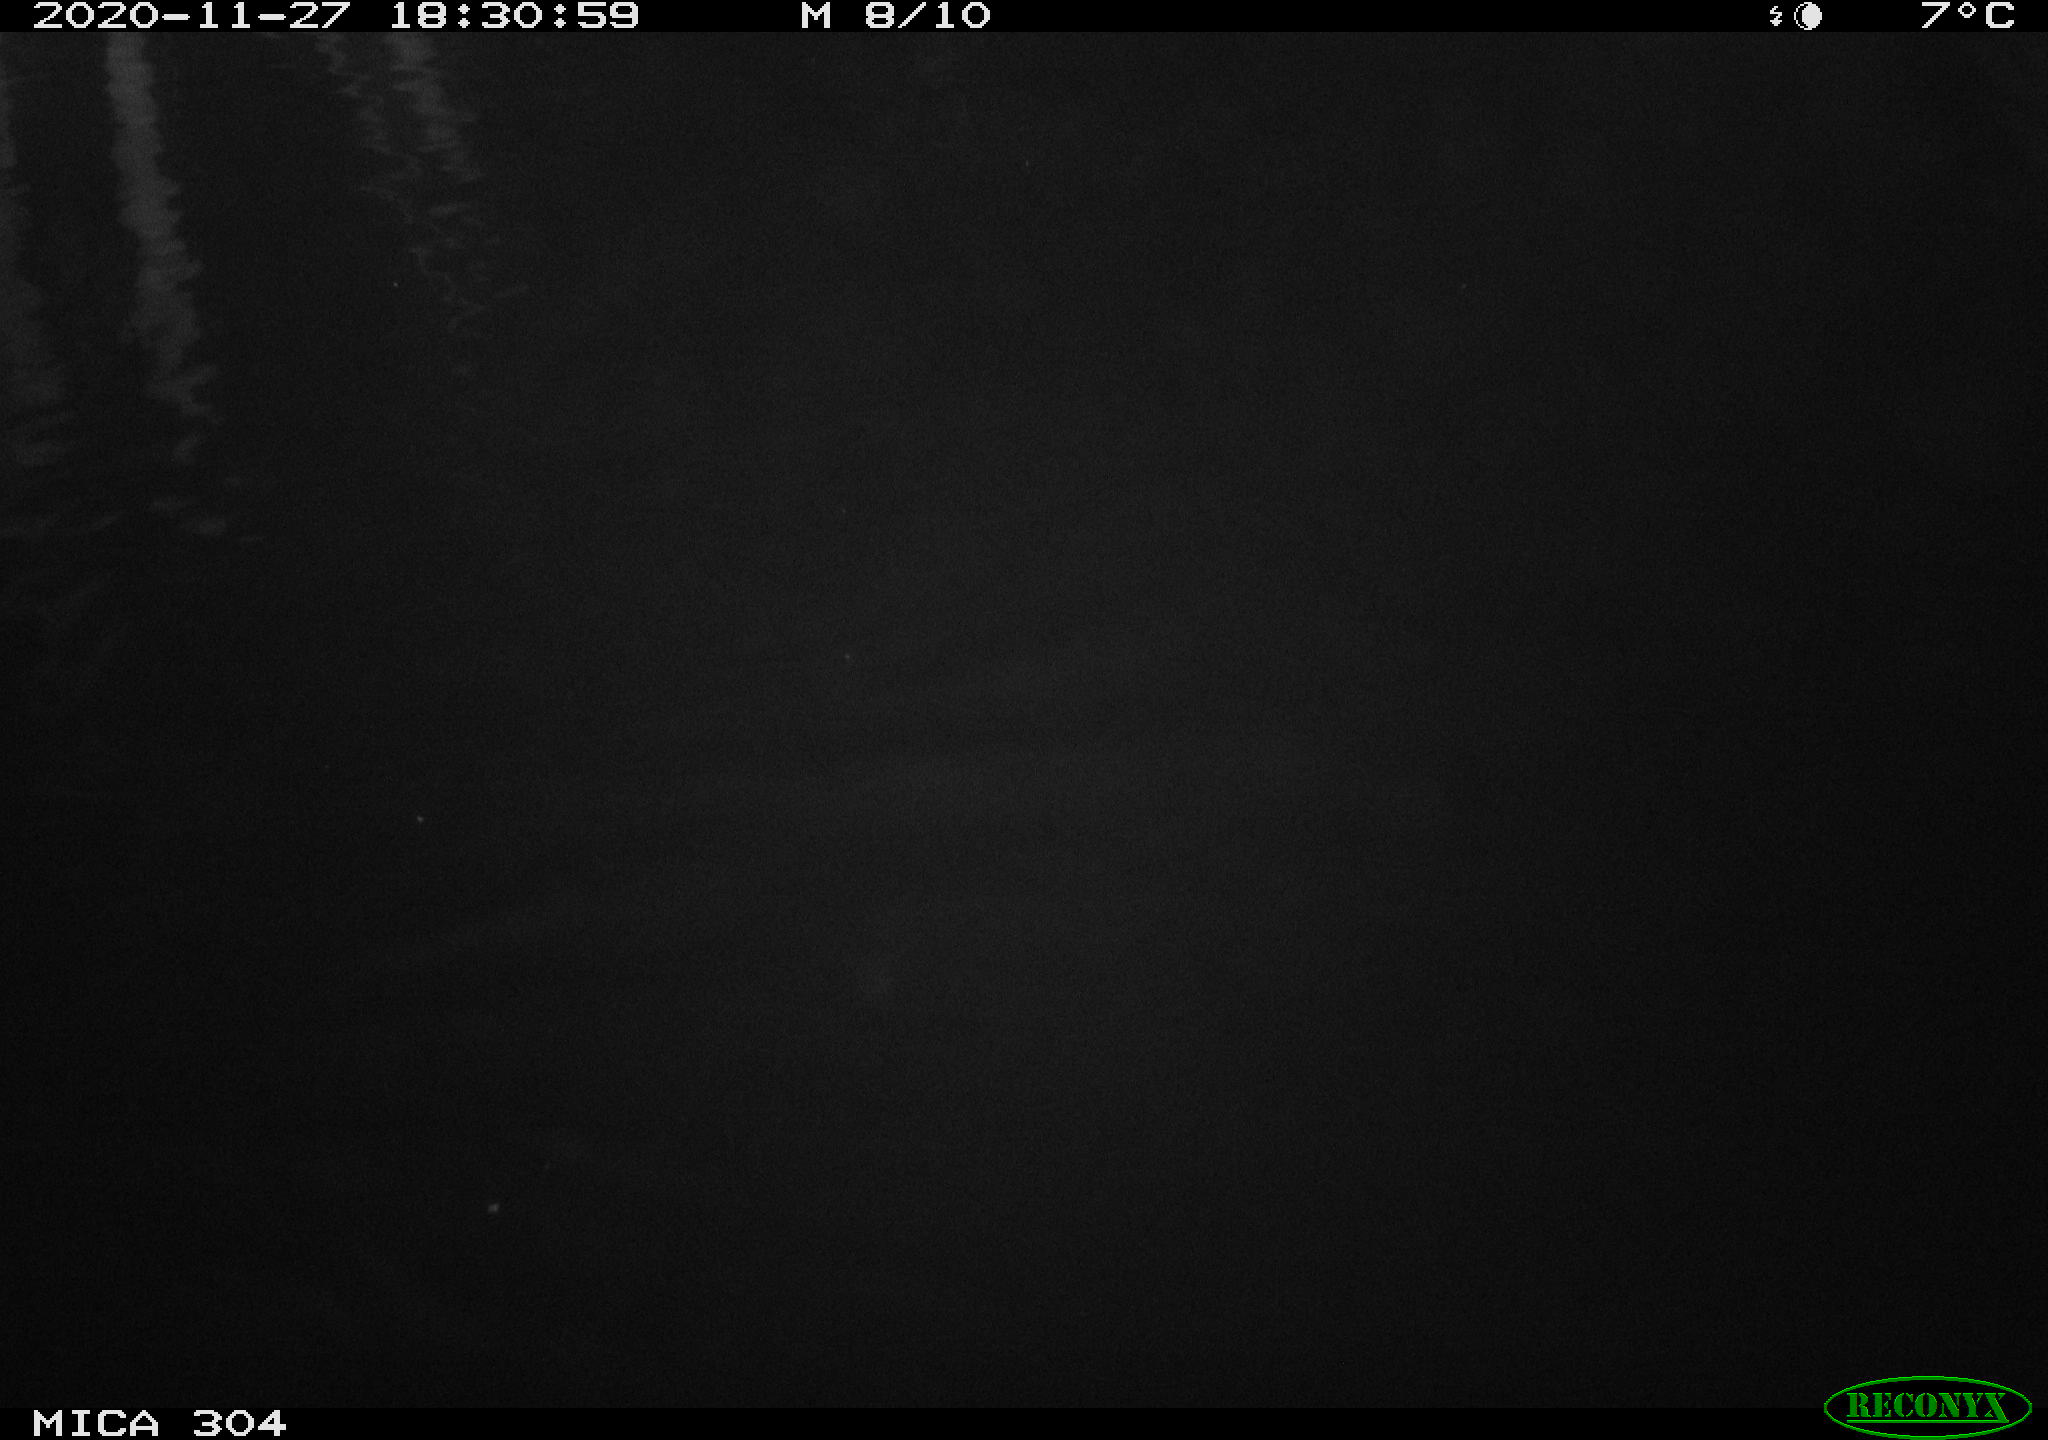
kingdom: Animalia
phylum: Chordata
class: Mammalia
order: Rodentia
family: Muridae
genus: Rattus
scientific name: Rattus norvegicus
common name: Brown rat
